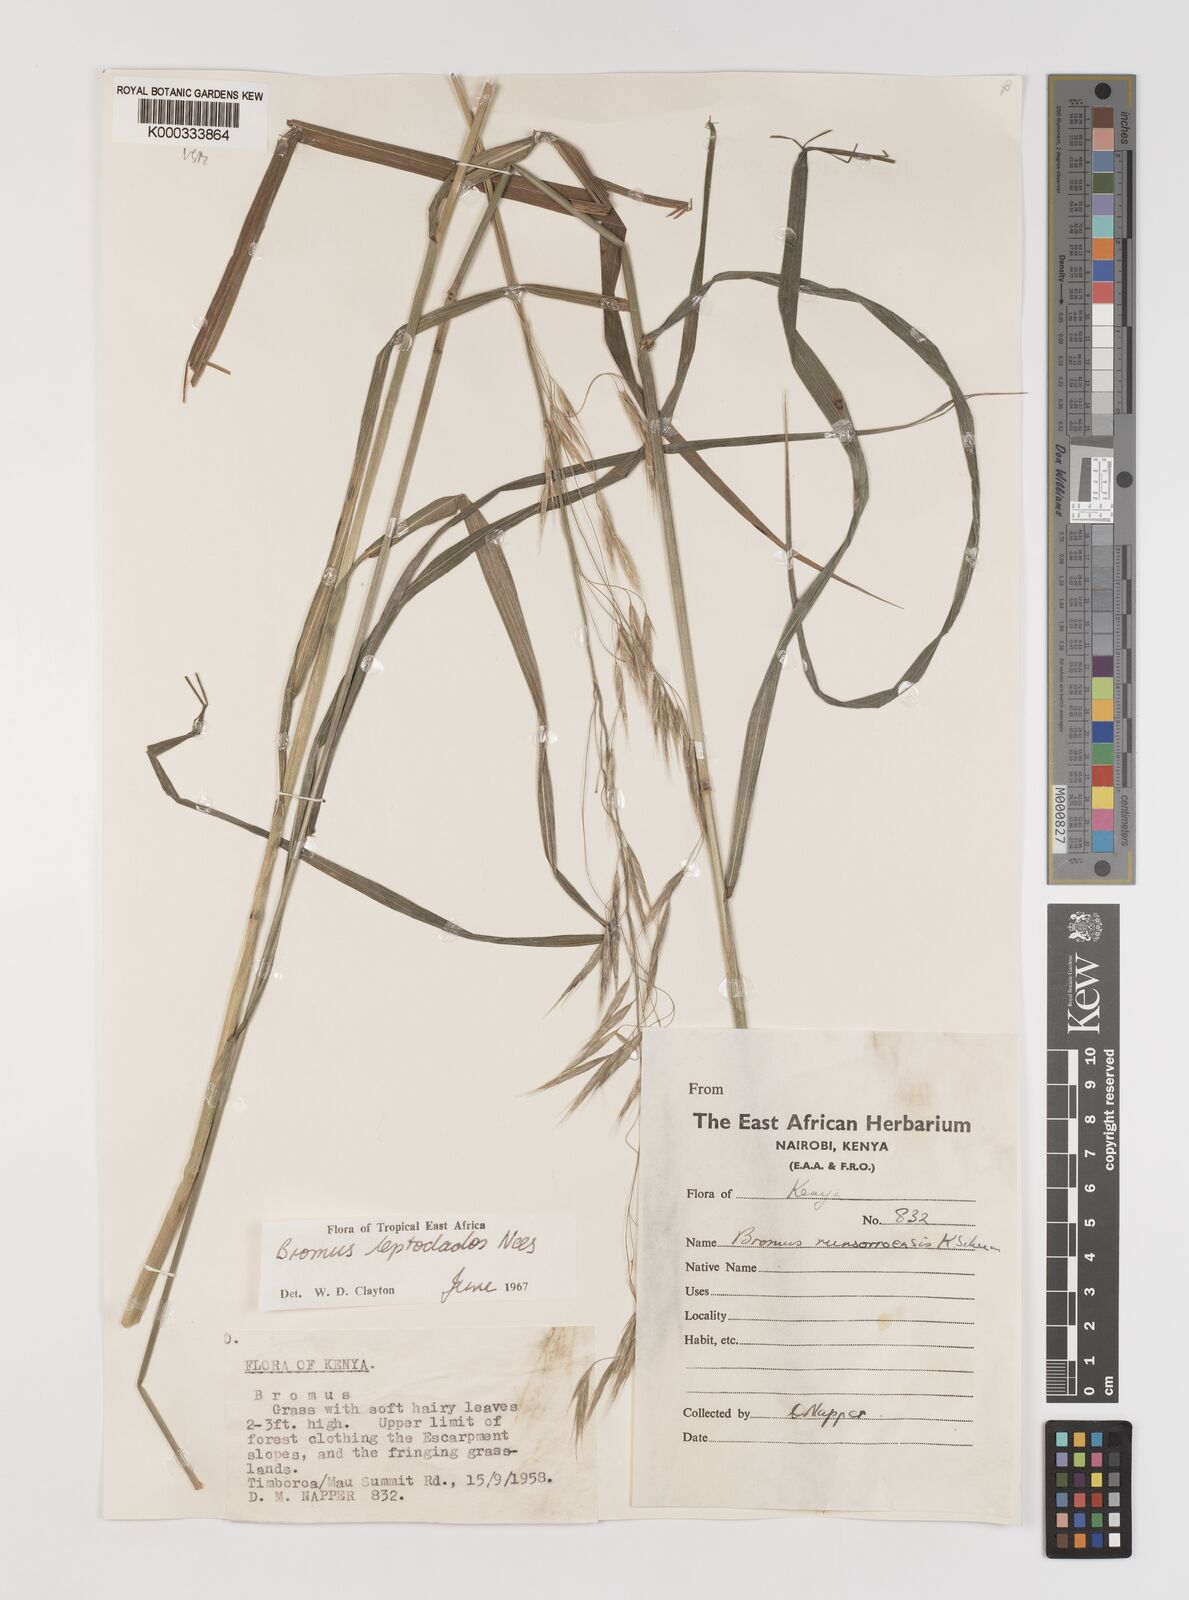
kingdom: Plantae
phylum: Tracheophyta
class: Liliopsida
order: Poales
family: Poaceae
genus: Bromus
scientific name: Bromus leptoclados
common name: Mountain bromegrass
